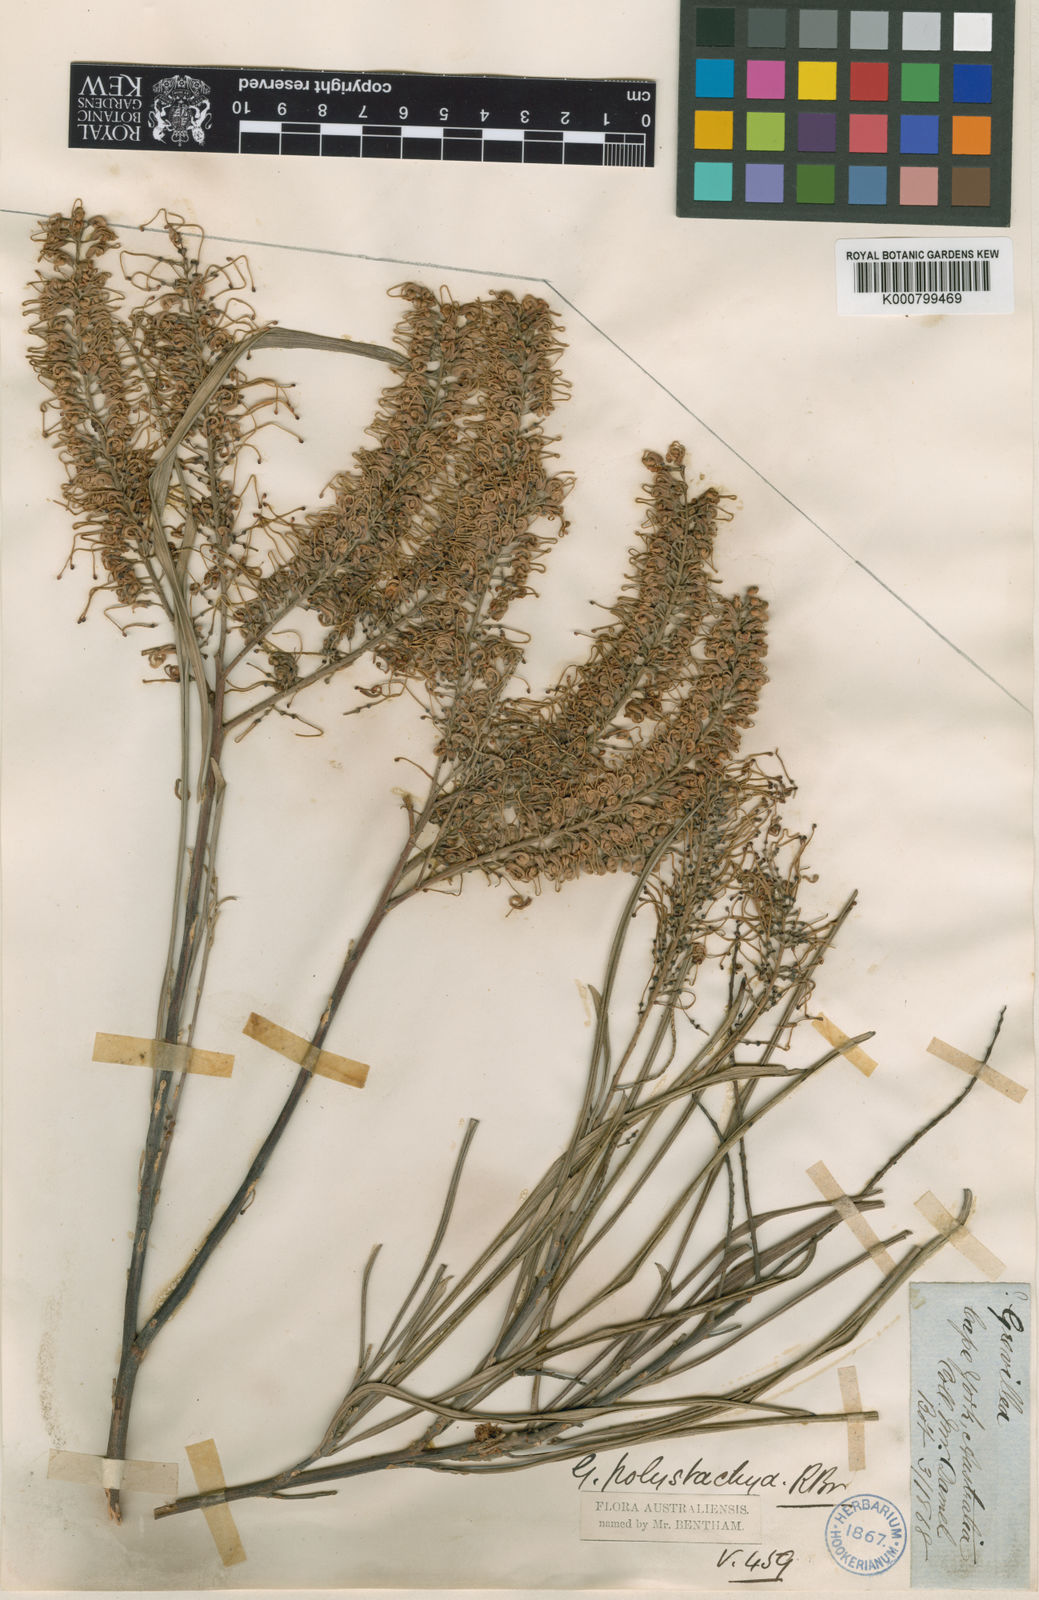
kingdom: Plantae
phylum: Tracheophyta
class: Magnoliopsida
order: Proteales
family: Proteaceae
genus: Grevillea
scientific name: Grevillea parallela
